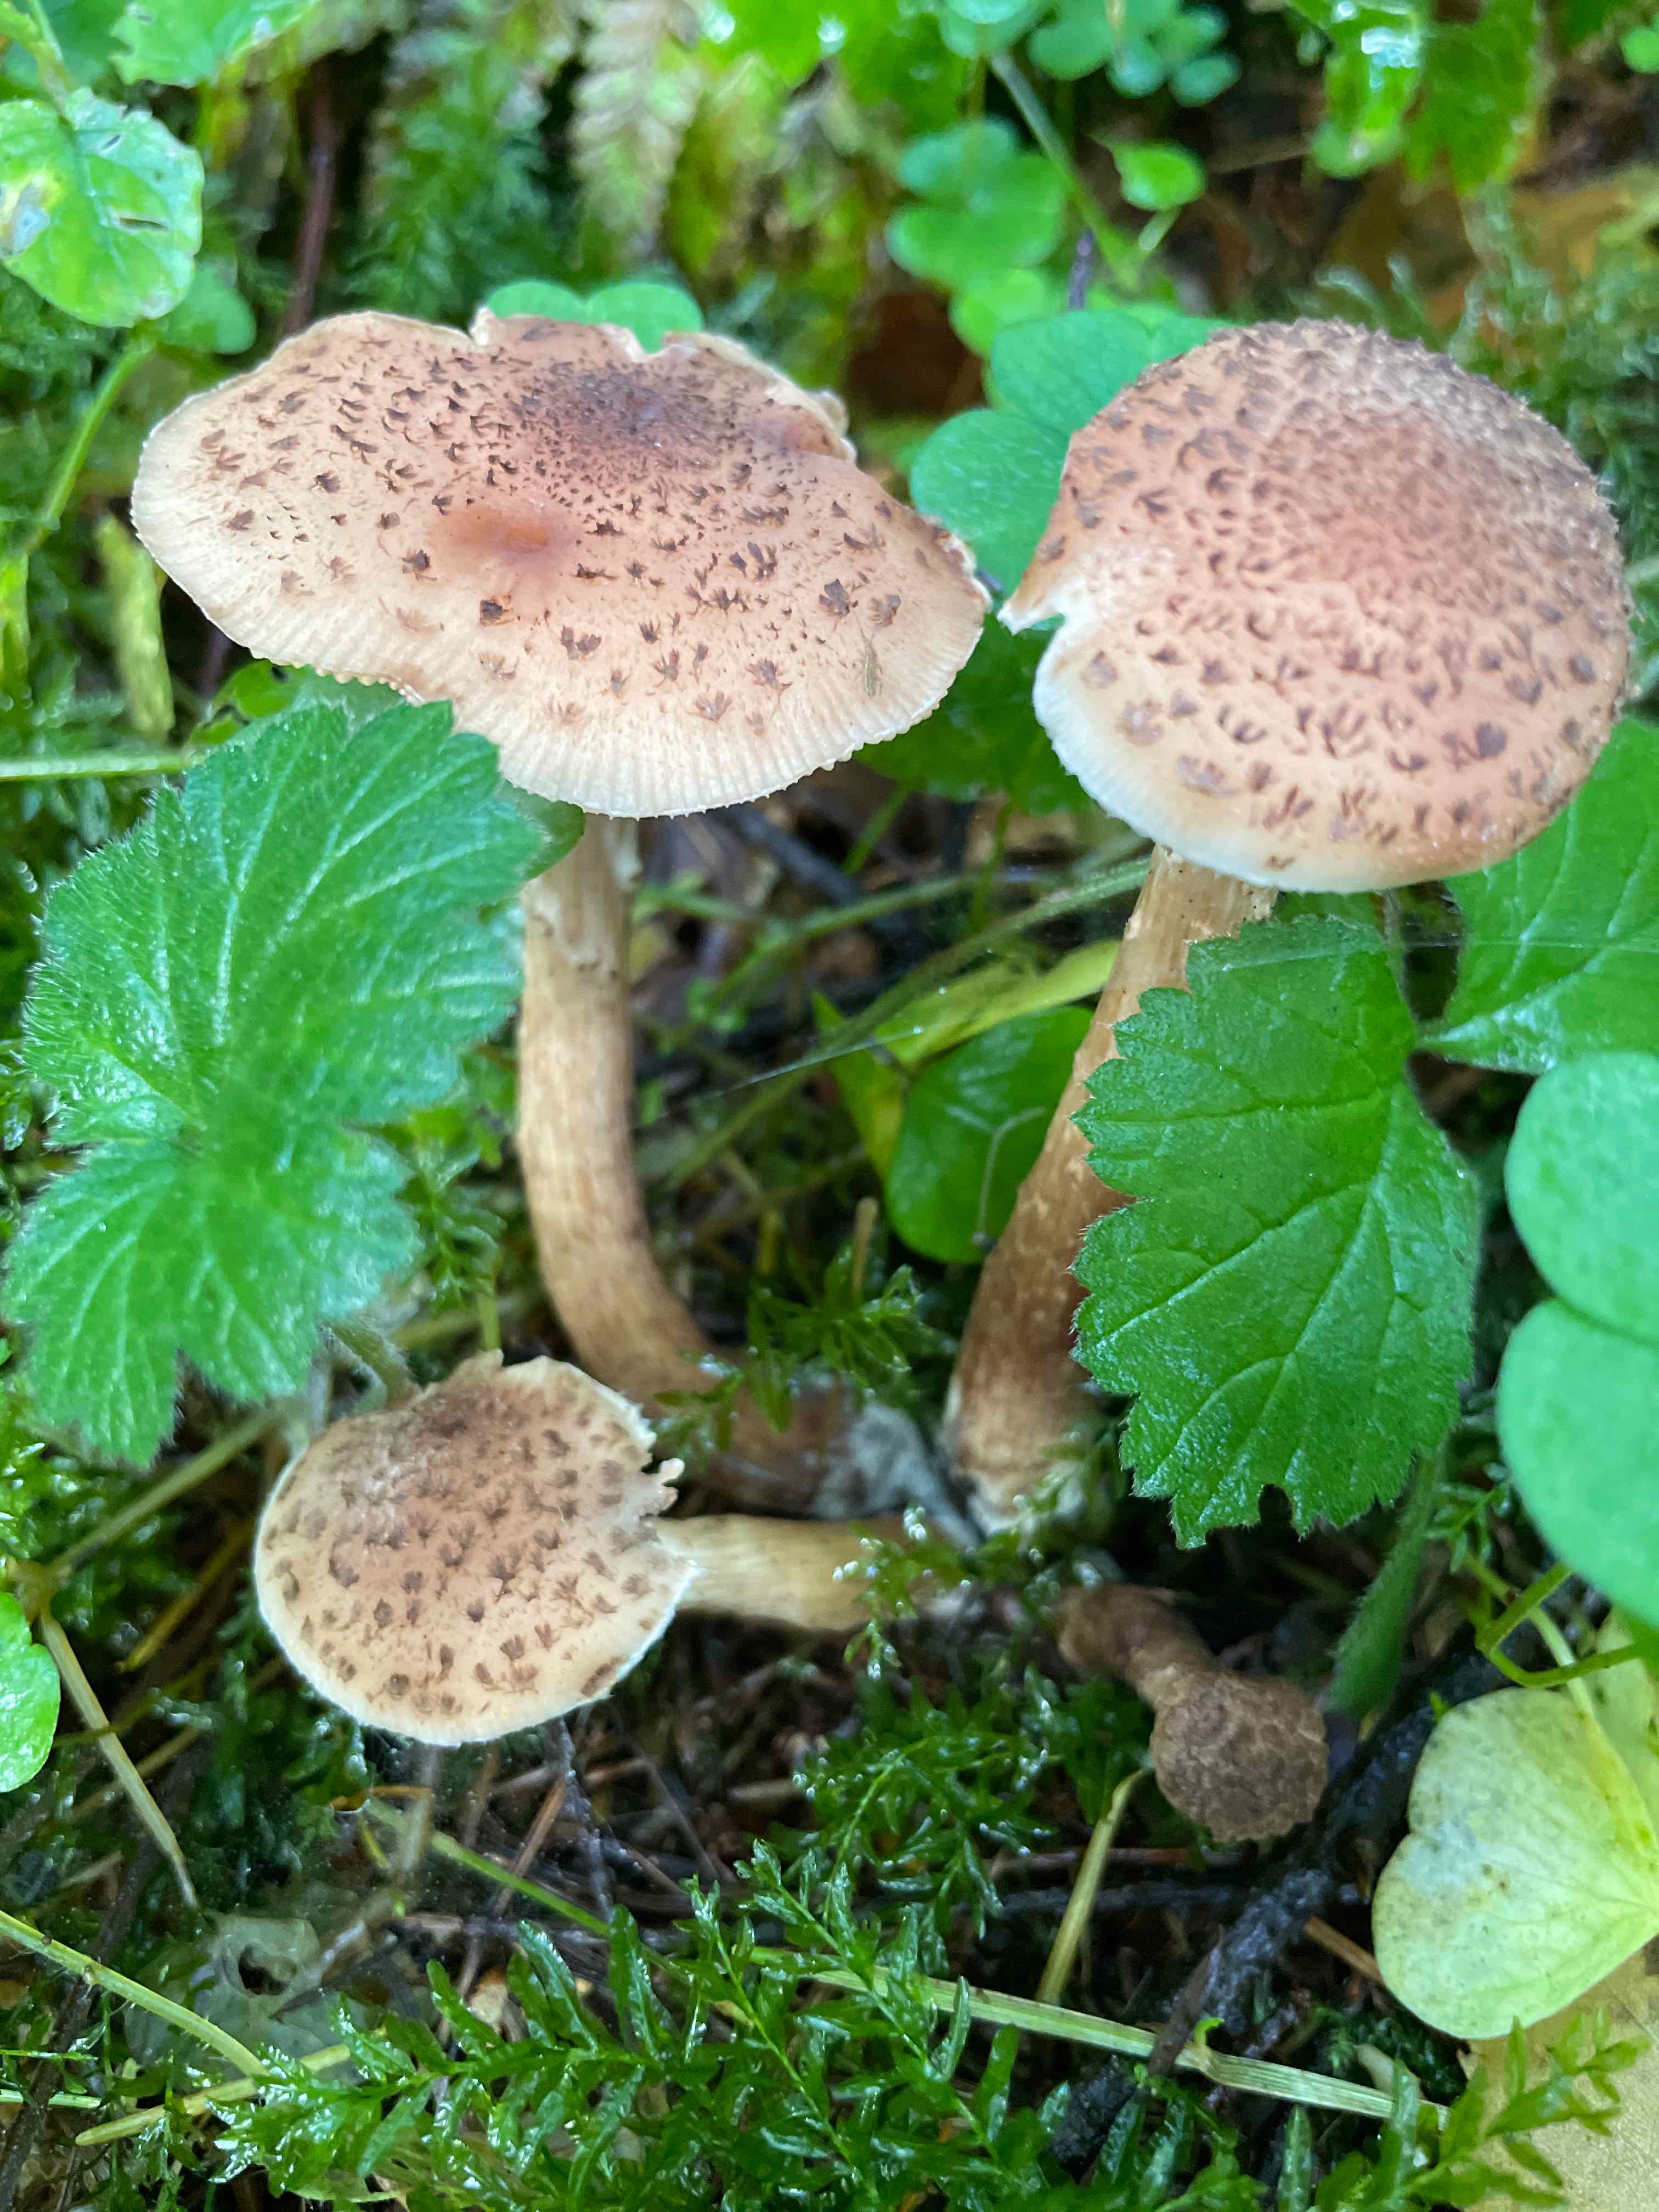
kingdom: Fungi
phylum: Basidiomycota
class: Agaricomycetes
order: Agaricales
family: Physalacriaceae
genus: Armillaria
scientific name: Armillaria ostoyae
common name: mørk honningsvamp
